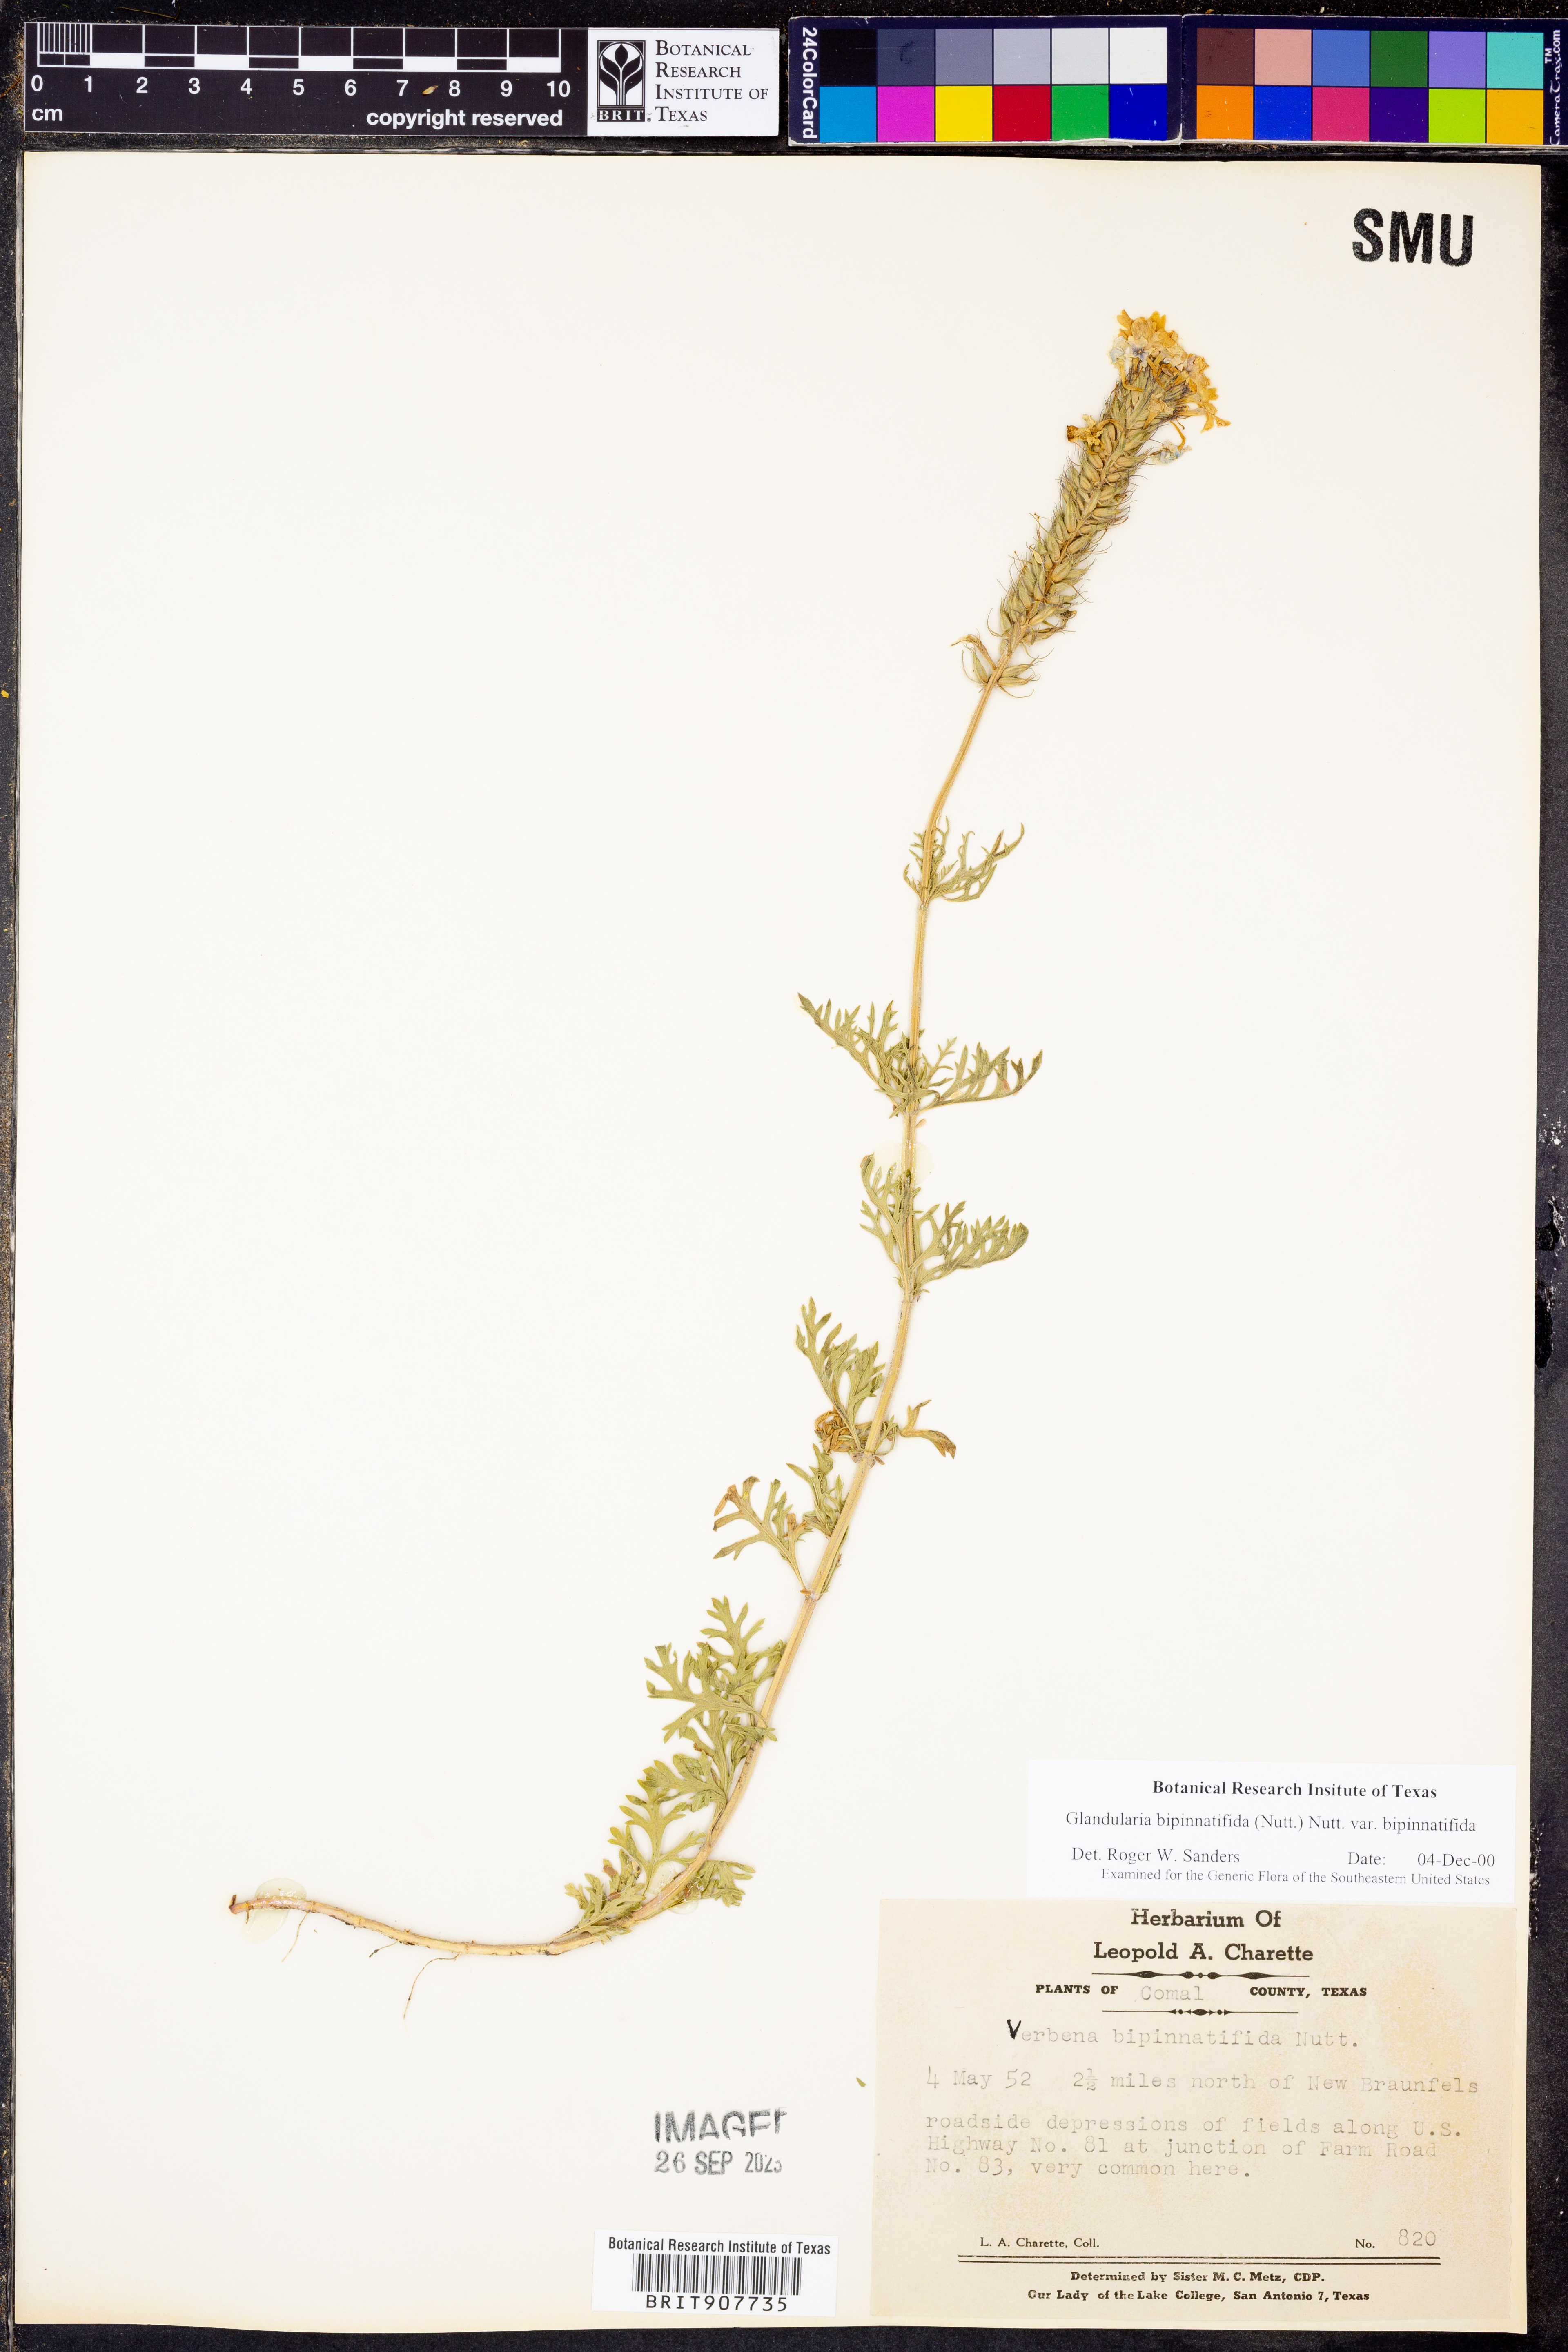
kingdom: Plantae
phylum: Tracheophyta
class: Magnoliopsida
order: Lamiales
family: Verbenaceae
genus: Verbena
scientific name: Verbena bipinnatifida
